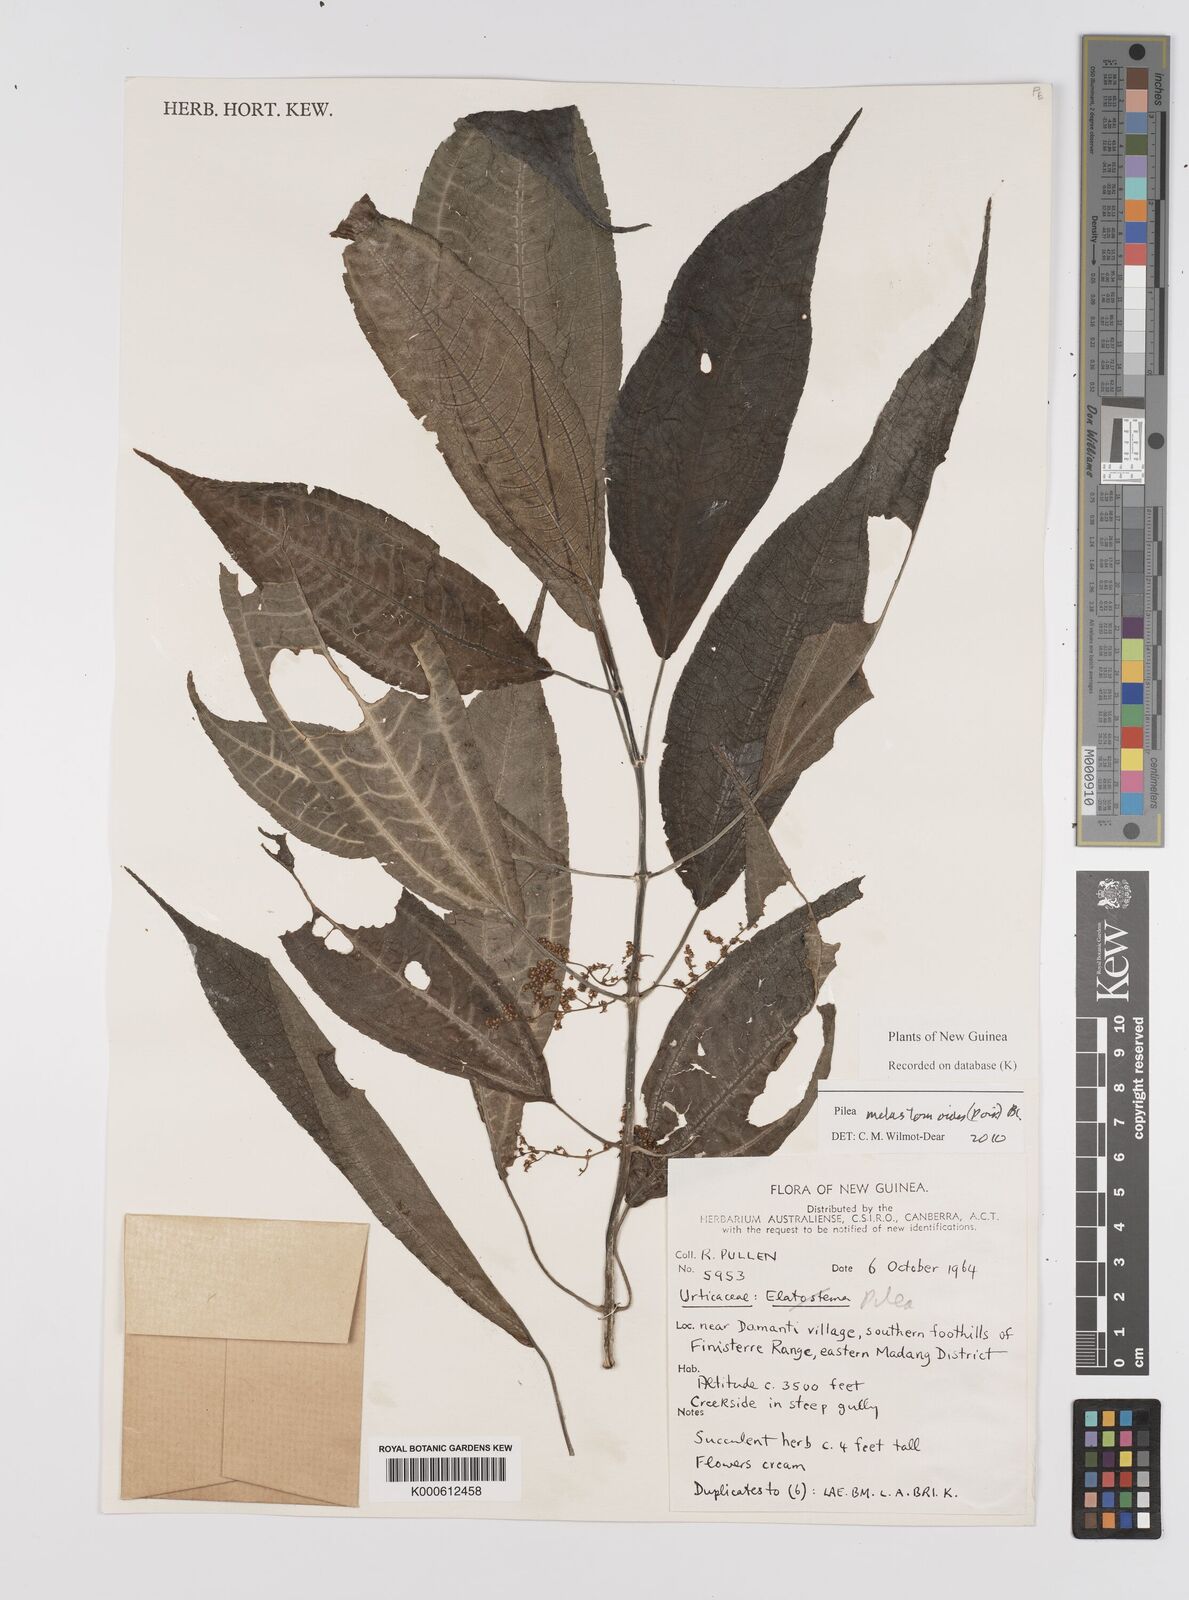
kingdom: Plantae
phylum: Tracheophyta
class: Magnoliopsida
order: Rosales
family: Urticaceae
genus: Pilea
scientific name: Pilea
